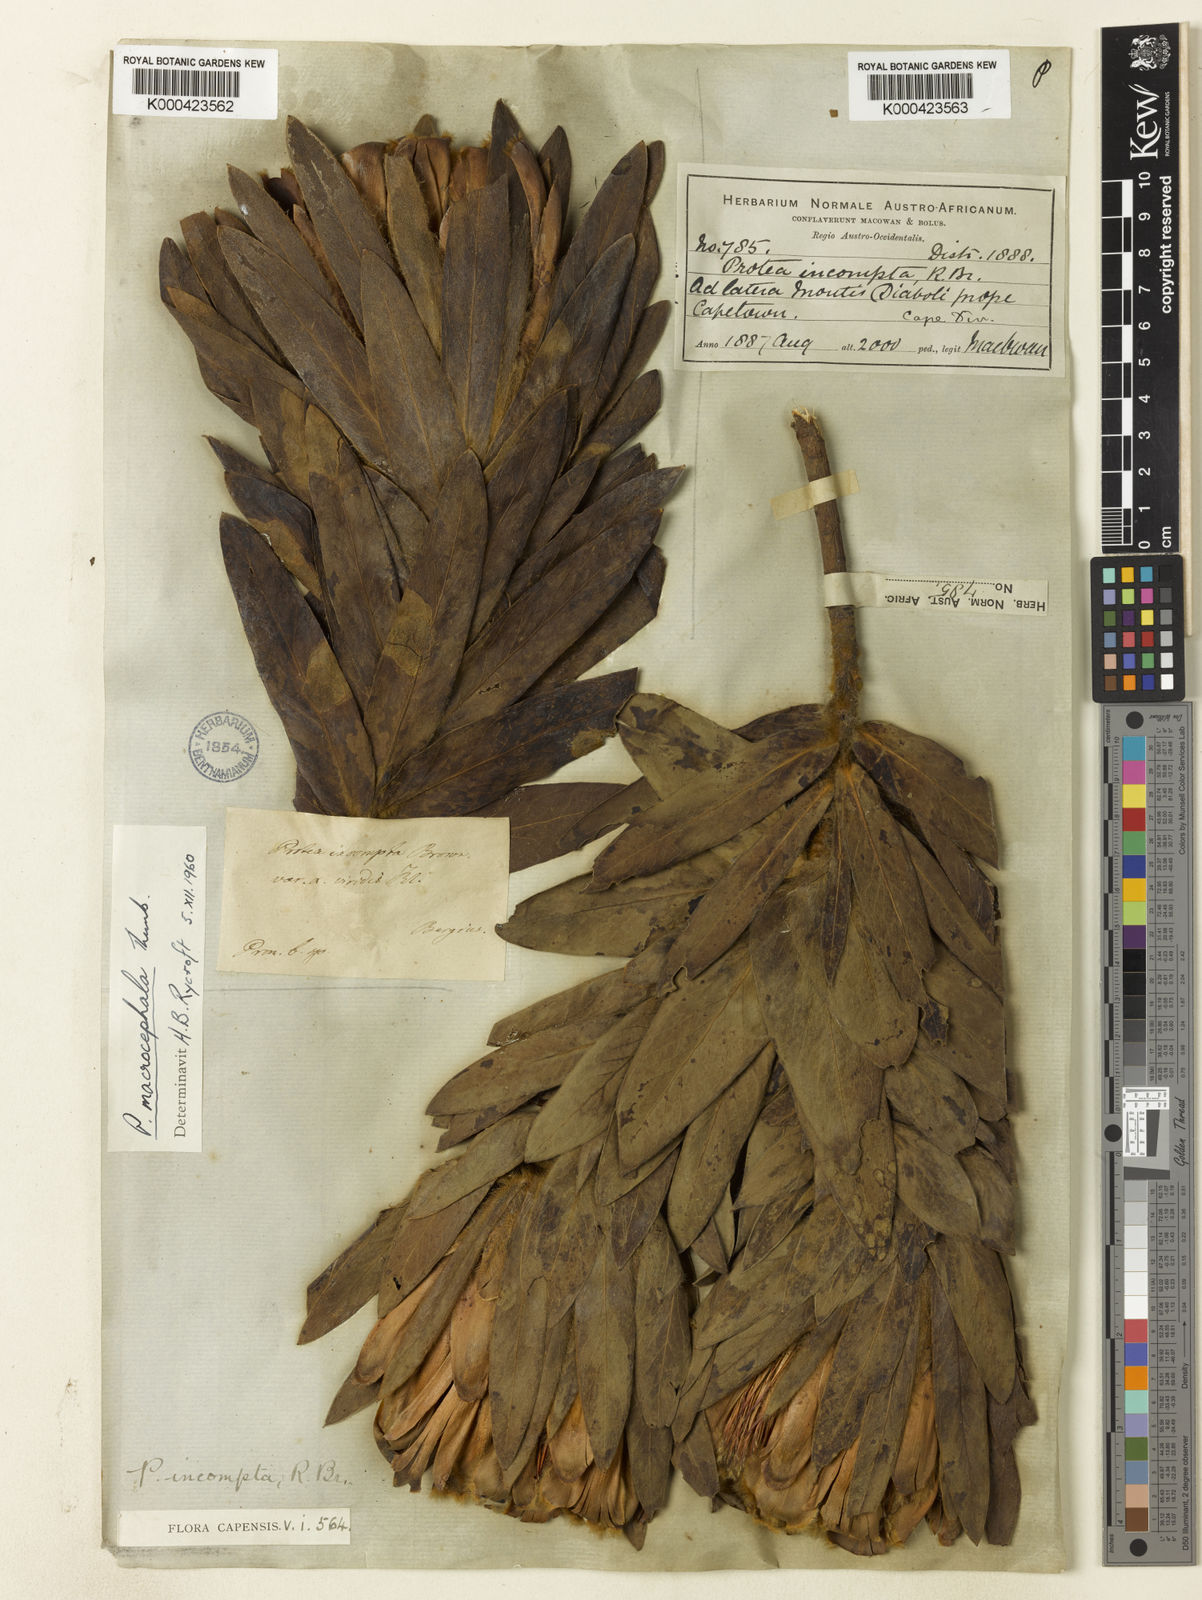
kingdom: Plantae
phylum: Tracheophyta
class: Magnoliopsida
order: Proteales
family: Proteaceae
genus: Protea
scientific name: Protea coronata
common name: Green sugarbush
